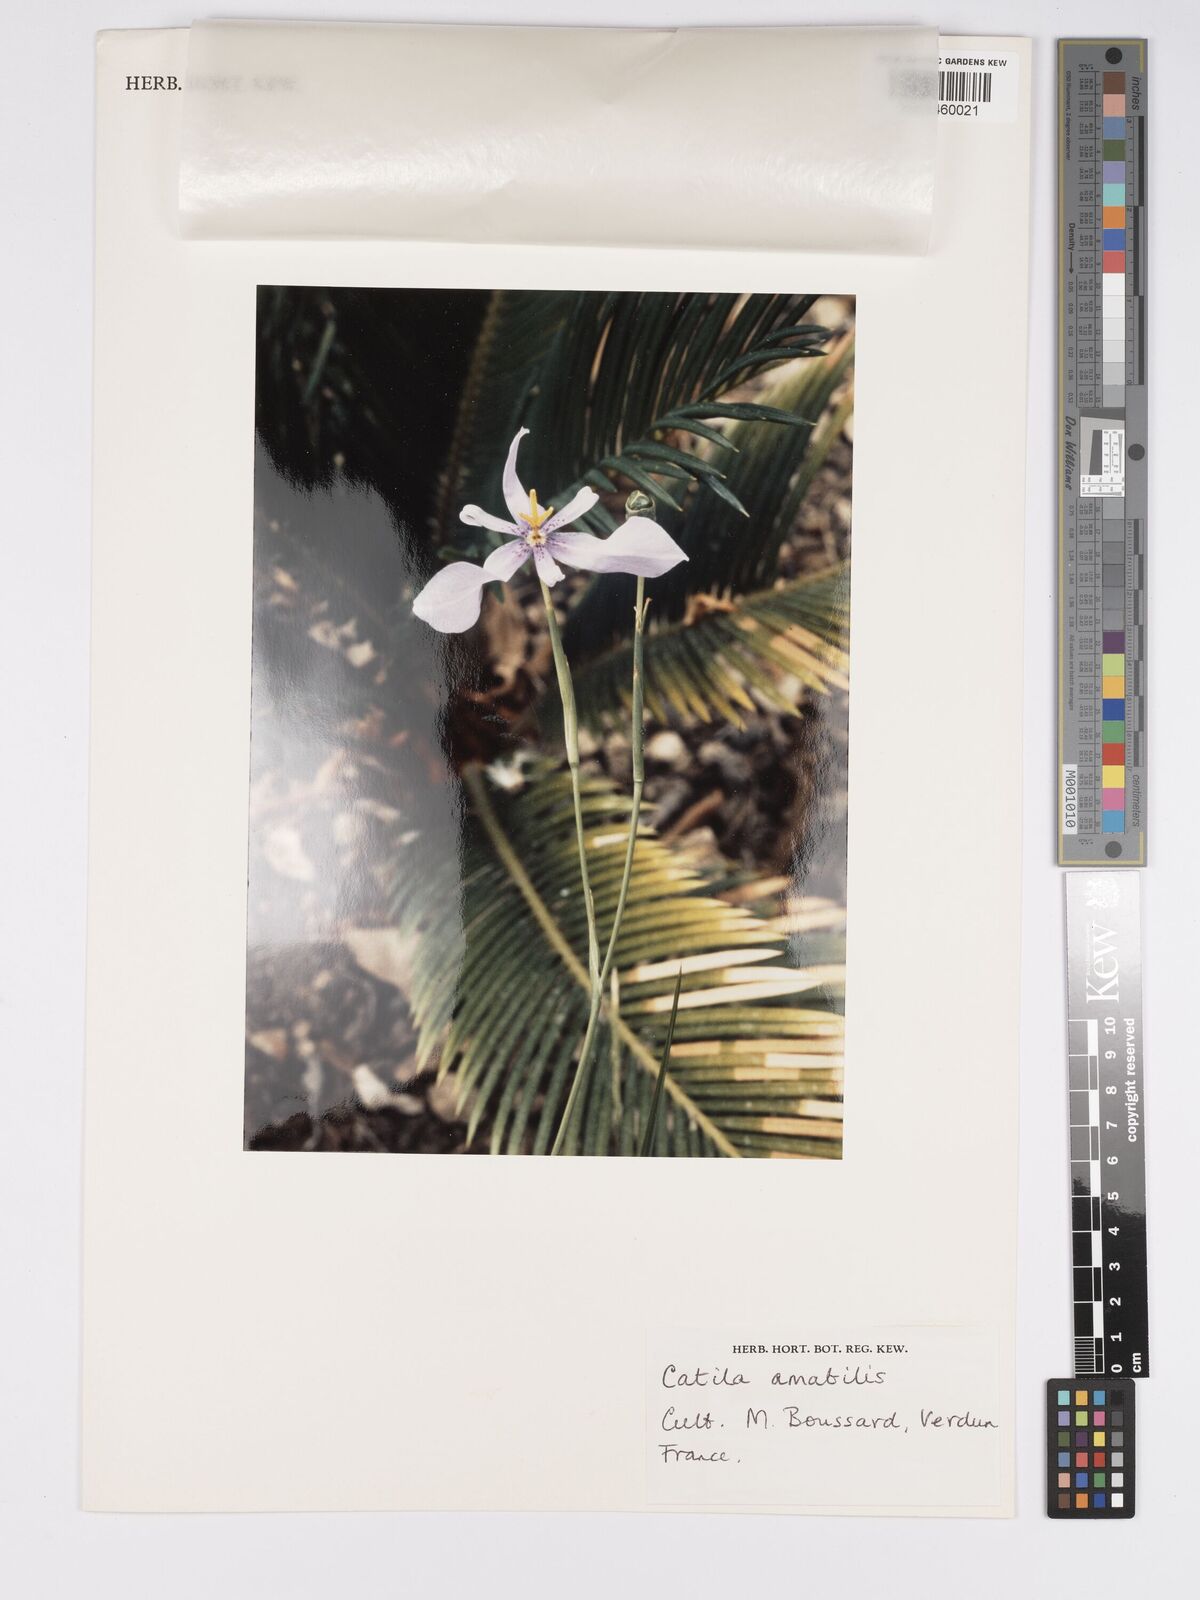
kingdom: Plantae
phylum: Tracheophyta
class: Liliopsida
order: Asparagales
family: Iridaceae
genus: Calydorea
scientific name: Calydorea amabilis
